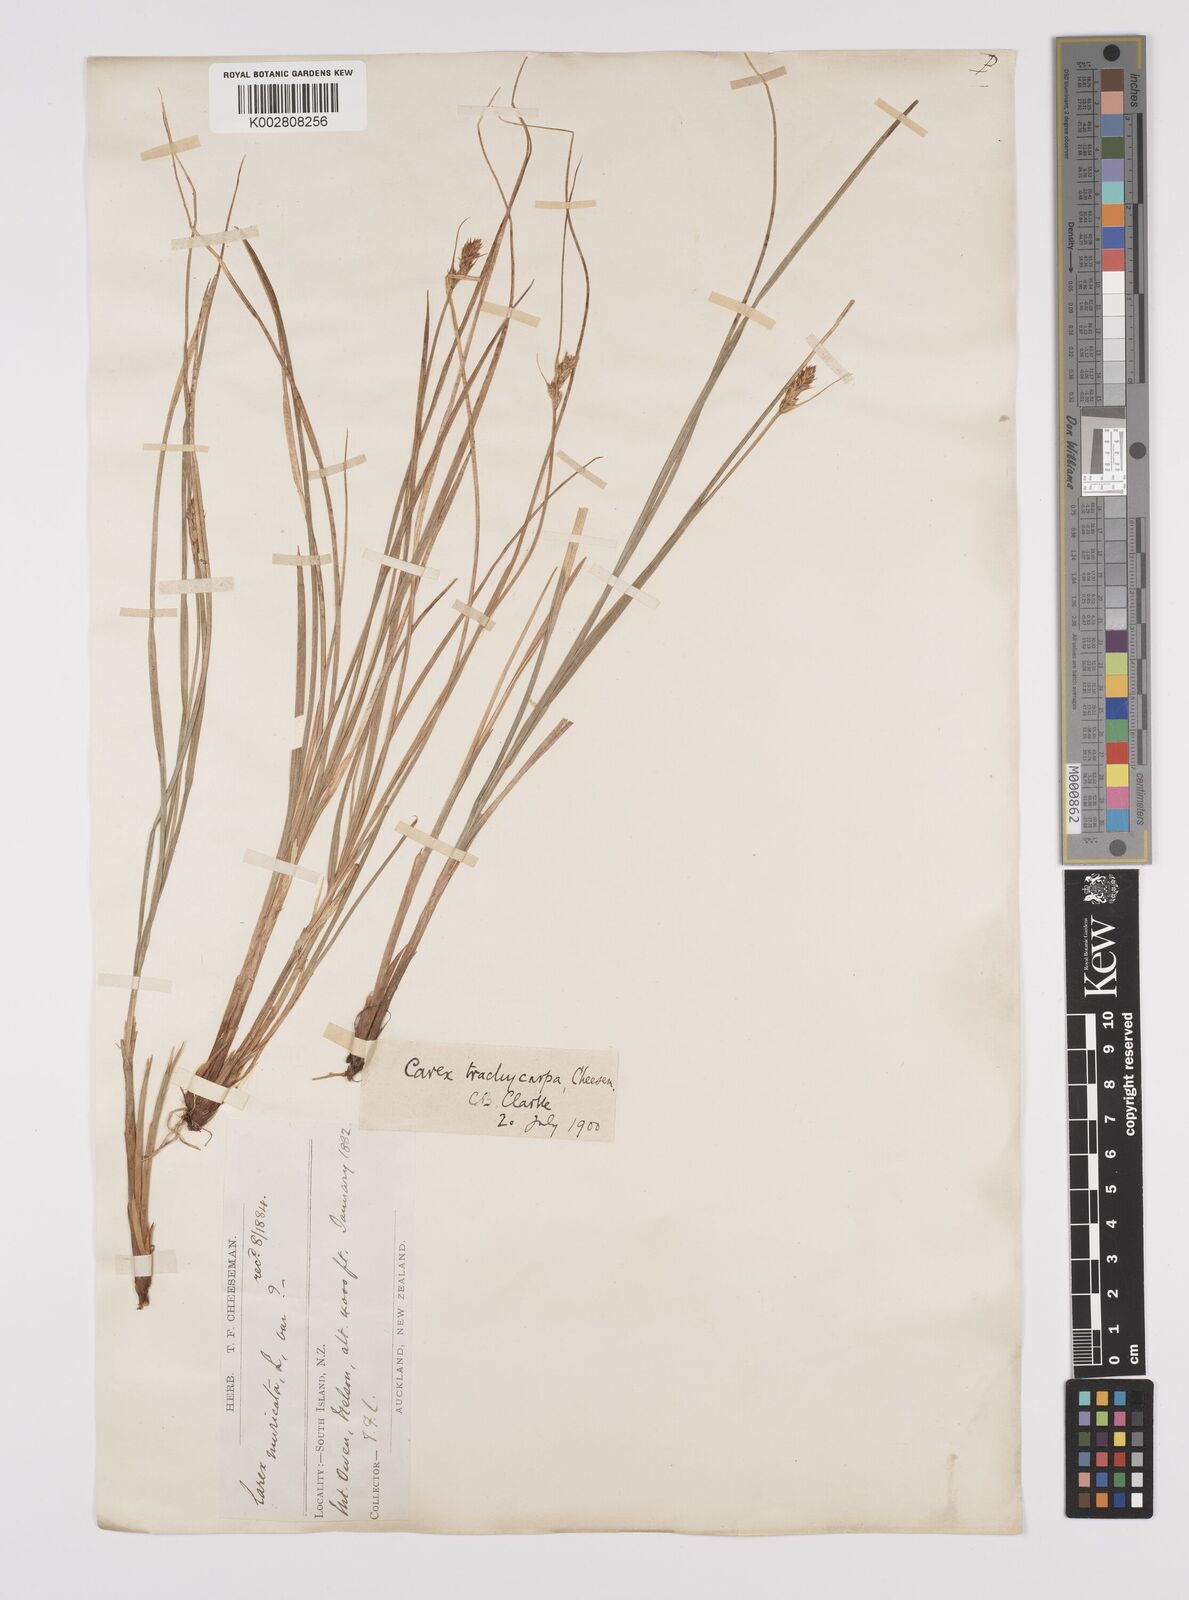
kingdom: Plantae
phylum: Tracheophyta
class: Liliopsida
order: Poales
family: Cyperaceae
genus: Carex
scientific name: Carex trachycarpa
